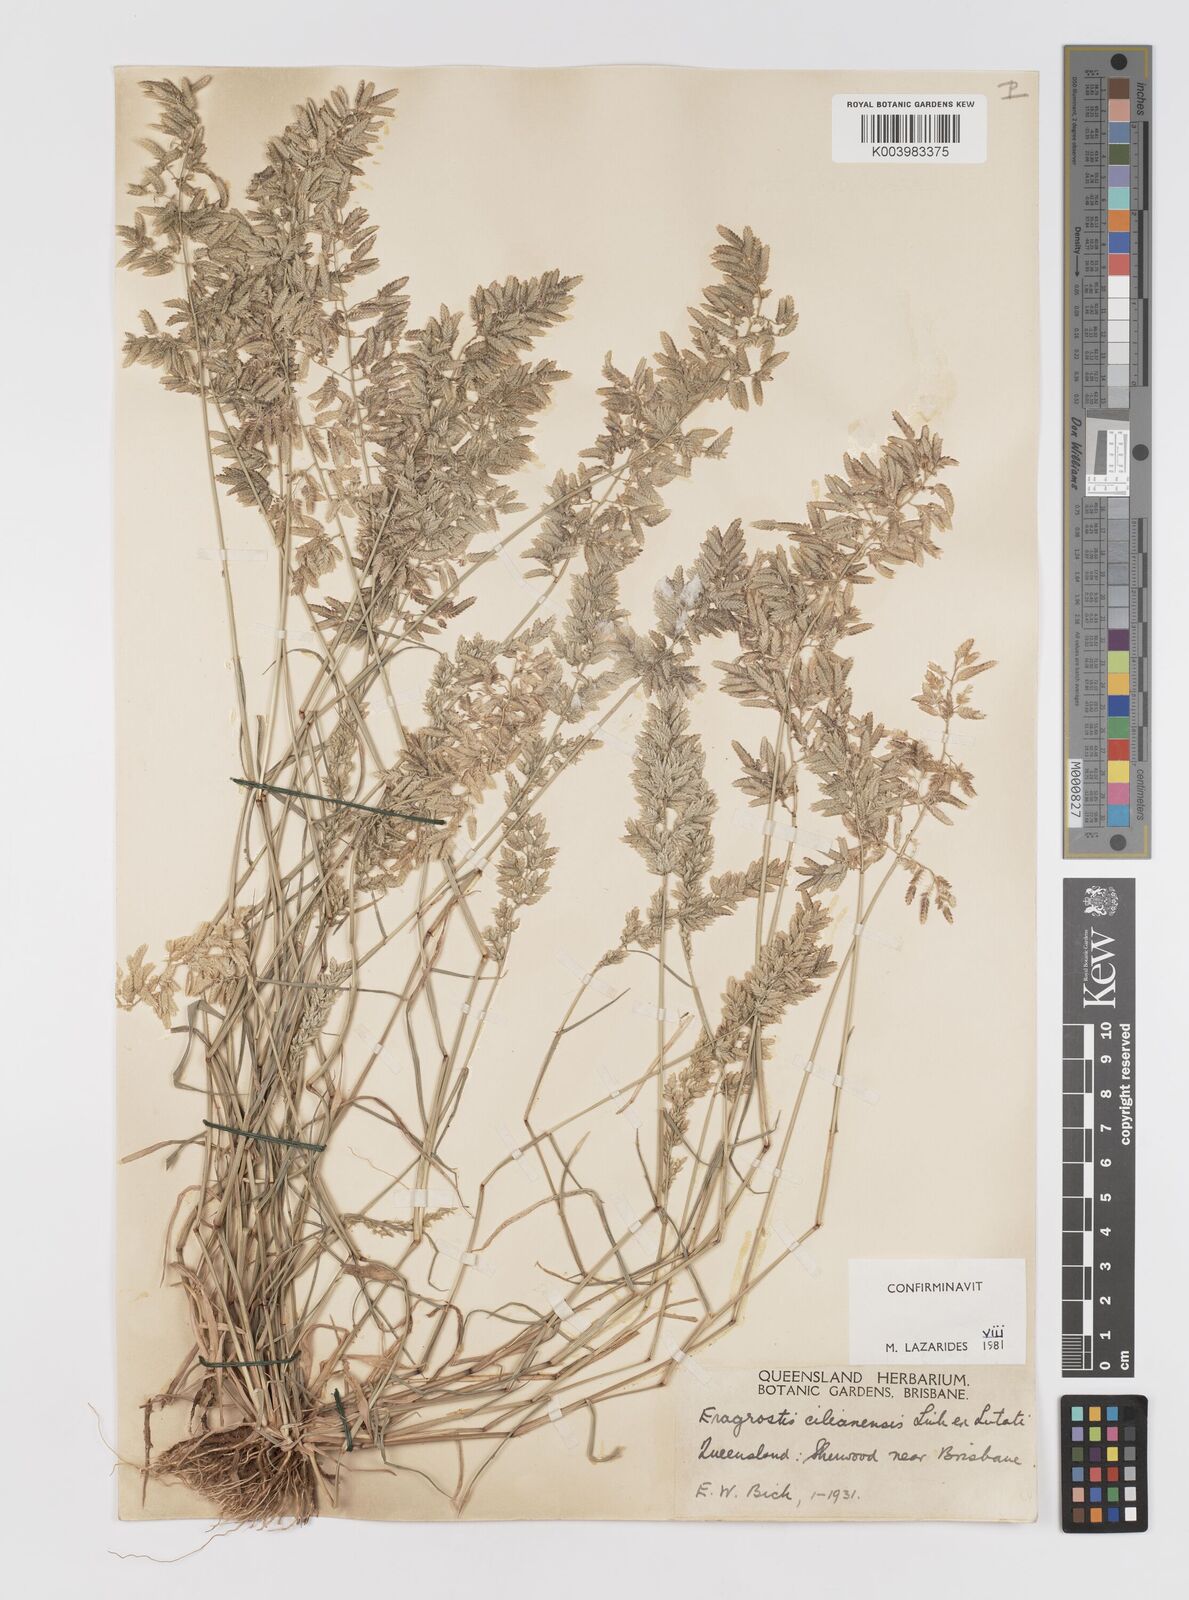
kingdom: Plantae
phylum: Tracheophyta
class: Liliopsida
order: Poales
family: Poaceae
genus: Eragrostis
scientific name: Eragrostis cilianensis
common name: Stinkgrass
